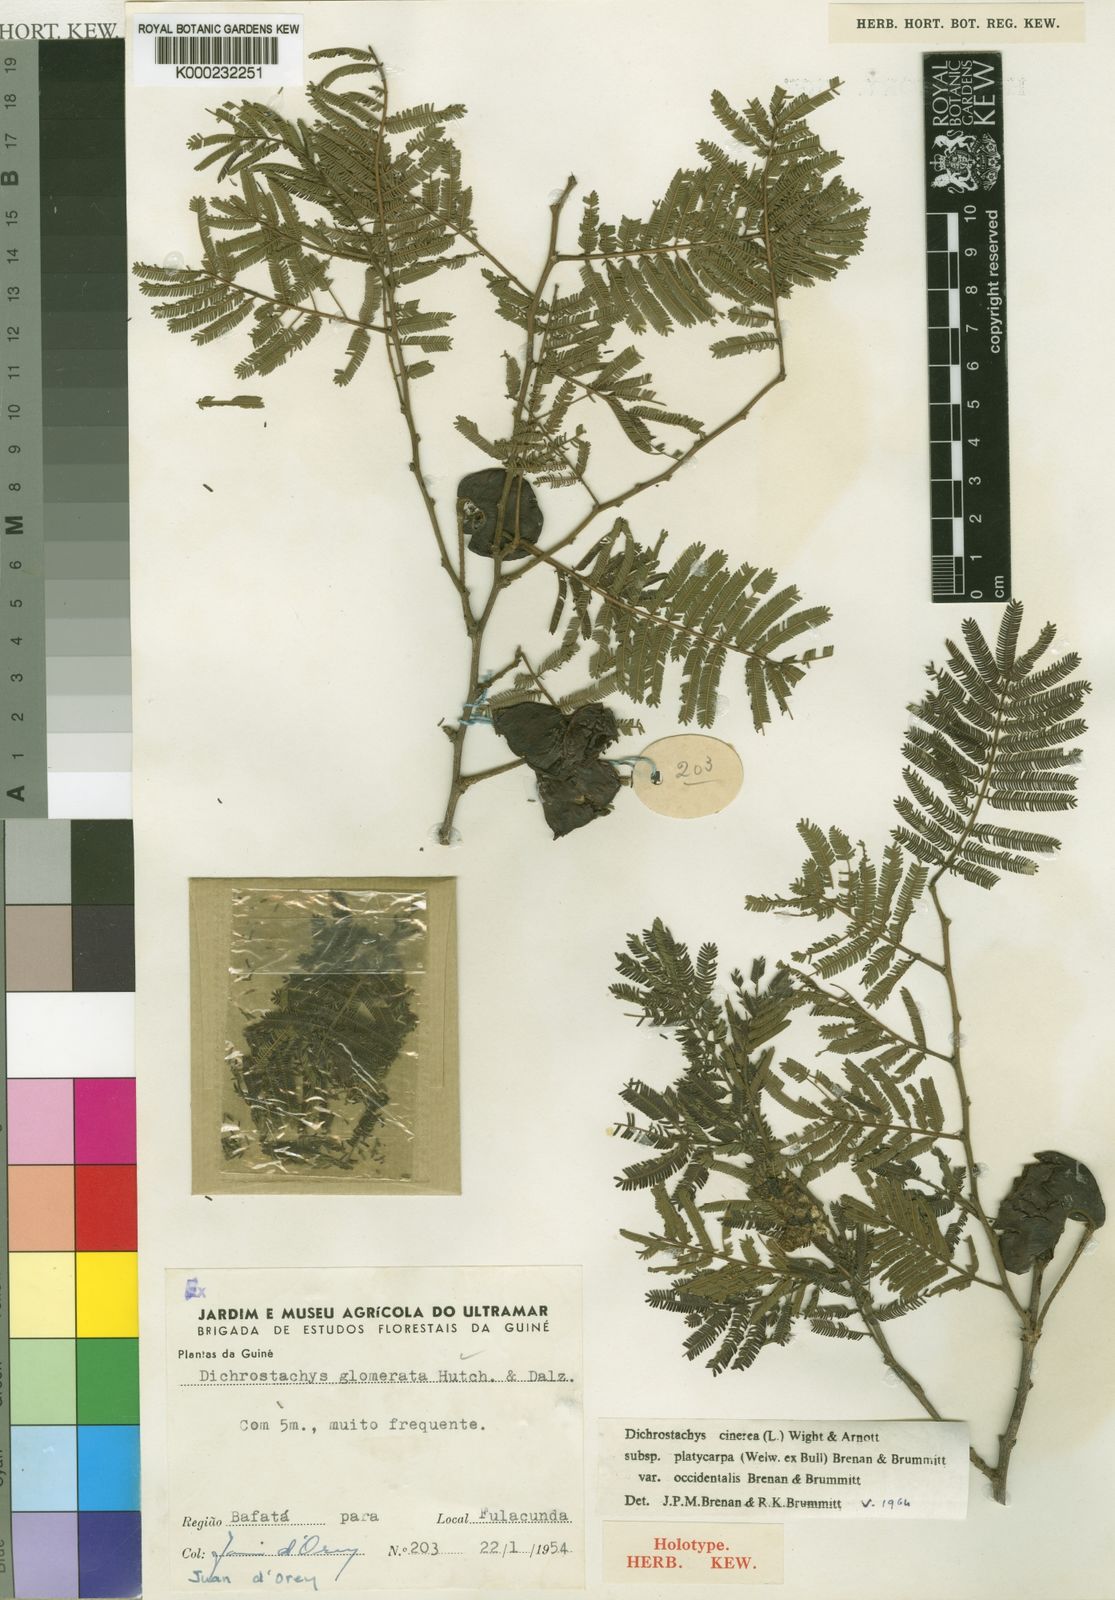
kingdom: Plantae
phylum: Tracheophyta
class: Magnoliopsida
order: Fabales
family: Fabaceae
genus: Dichrostachys
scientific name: Dichrostachys cinerea
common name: Sicklebush
